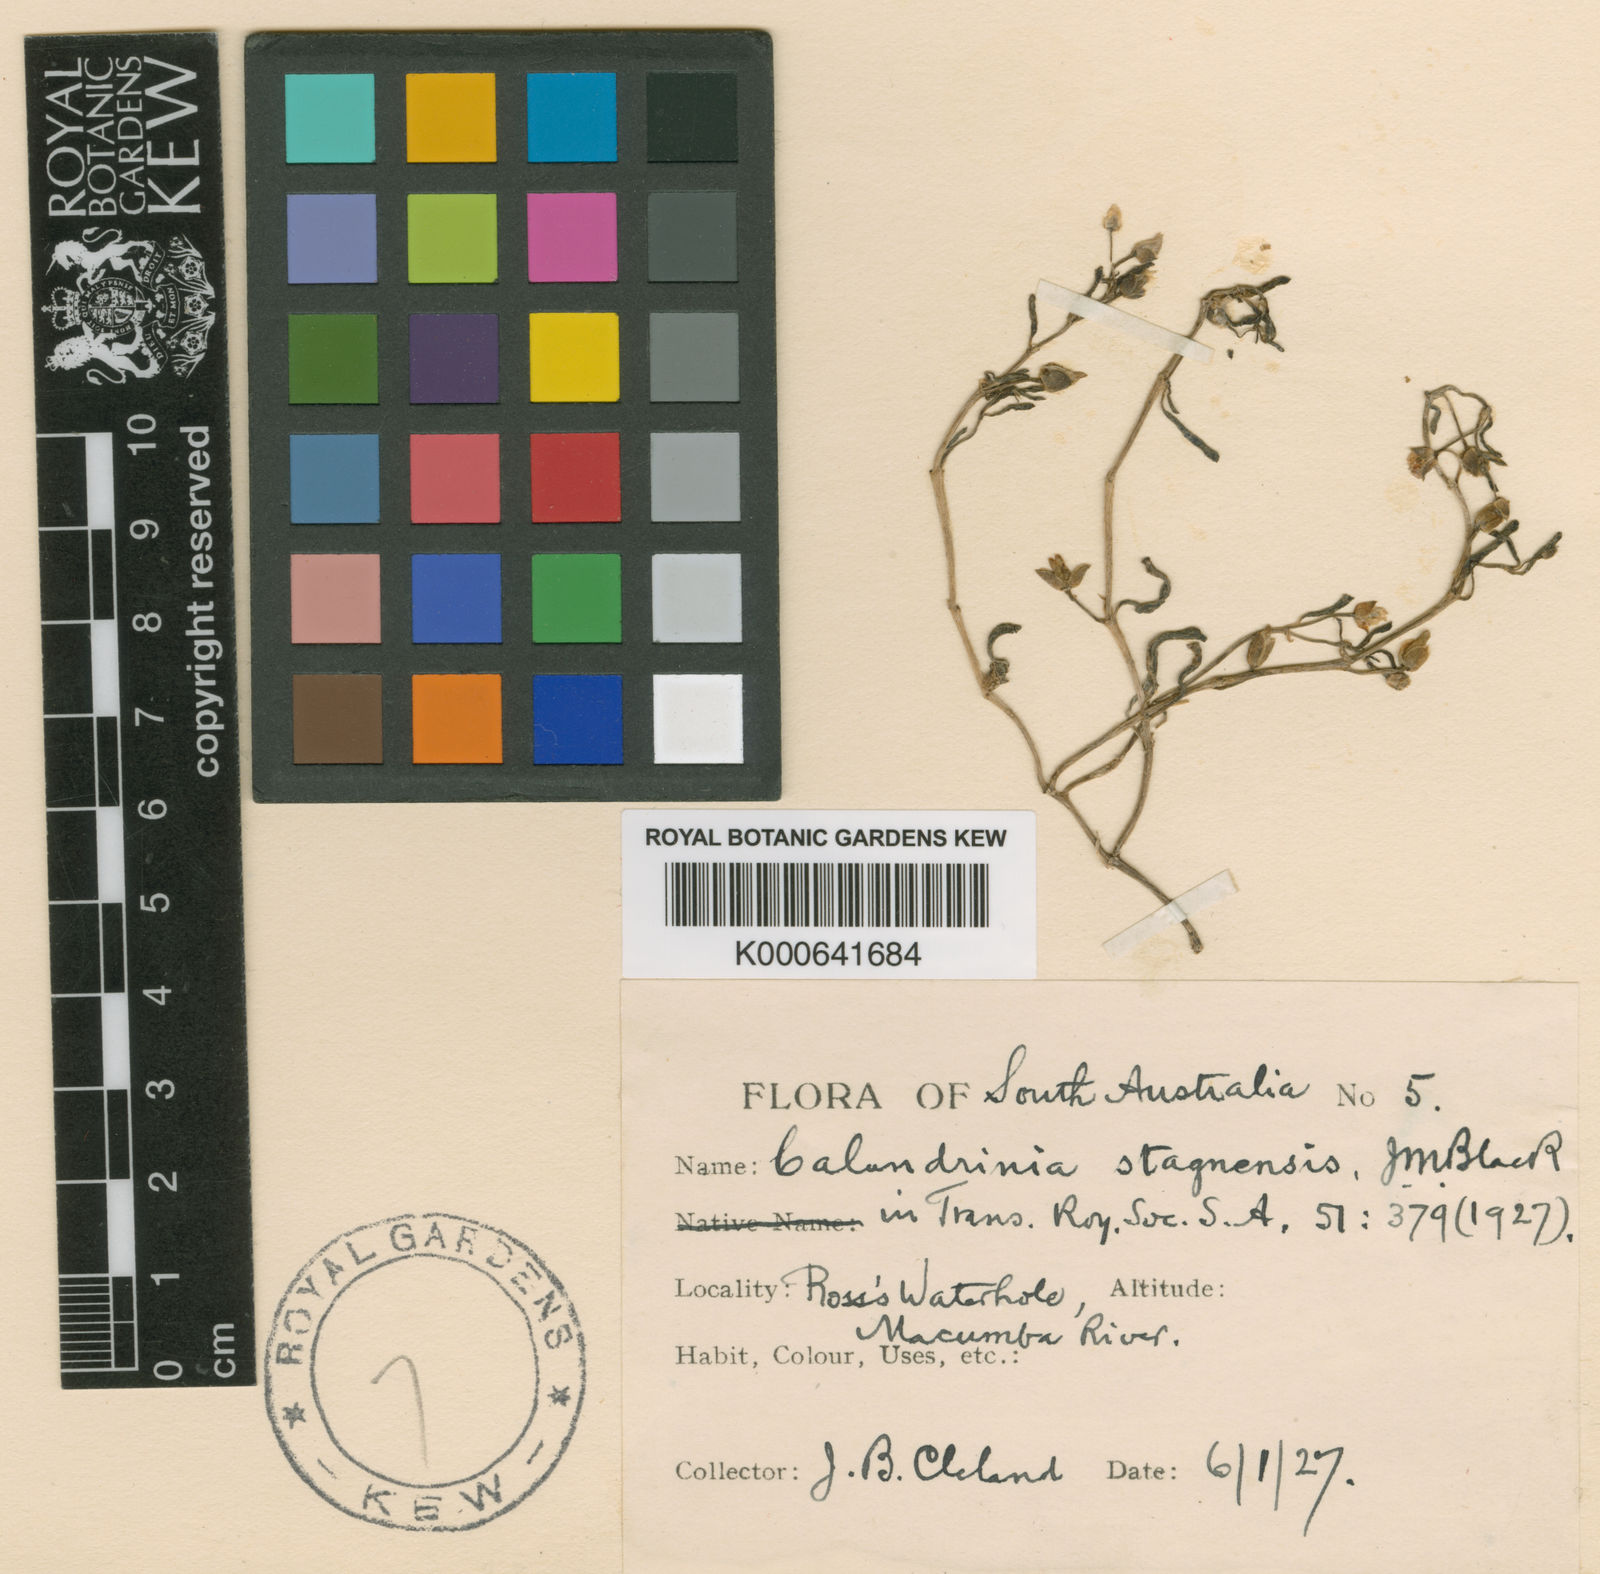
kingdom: Plantae
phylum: Tracheophyta
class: Magnoliopsida
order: Caryophyllales
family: Montiaceae
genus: Rumicastrum
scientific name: Rumicastrum stagnense
